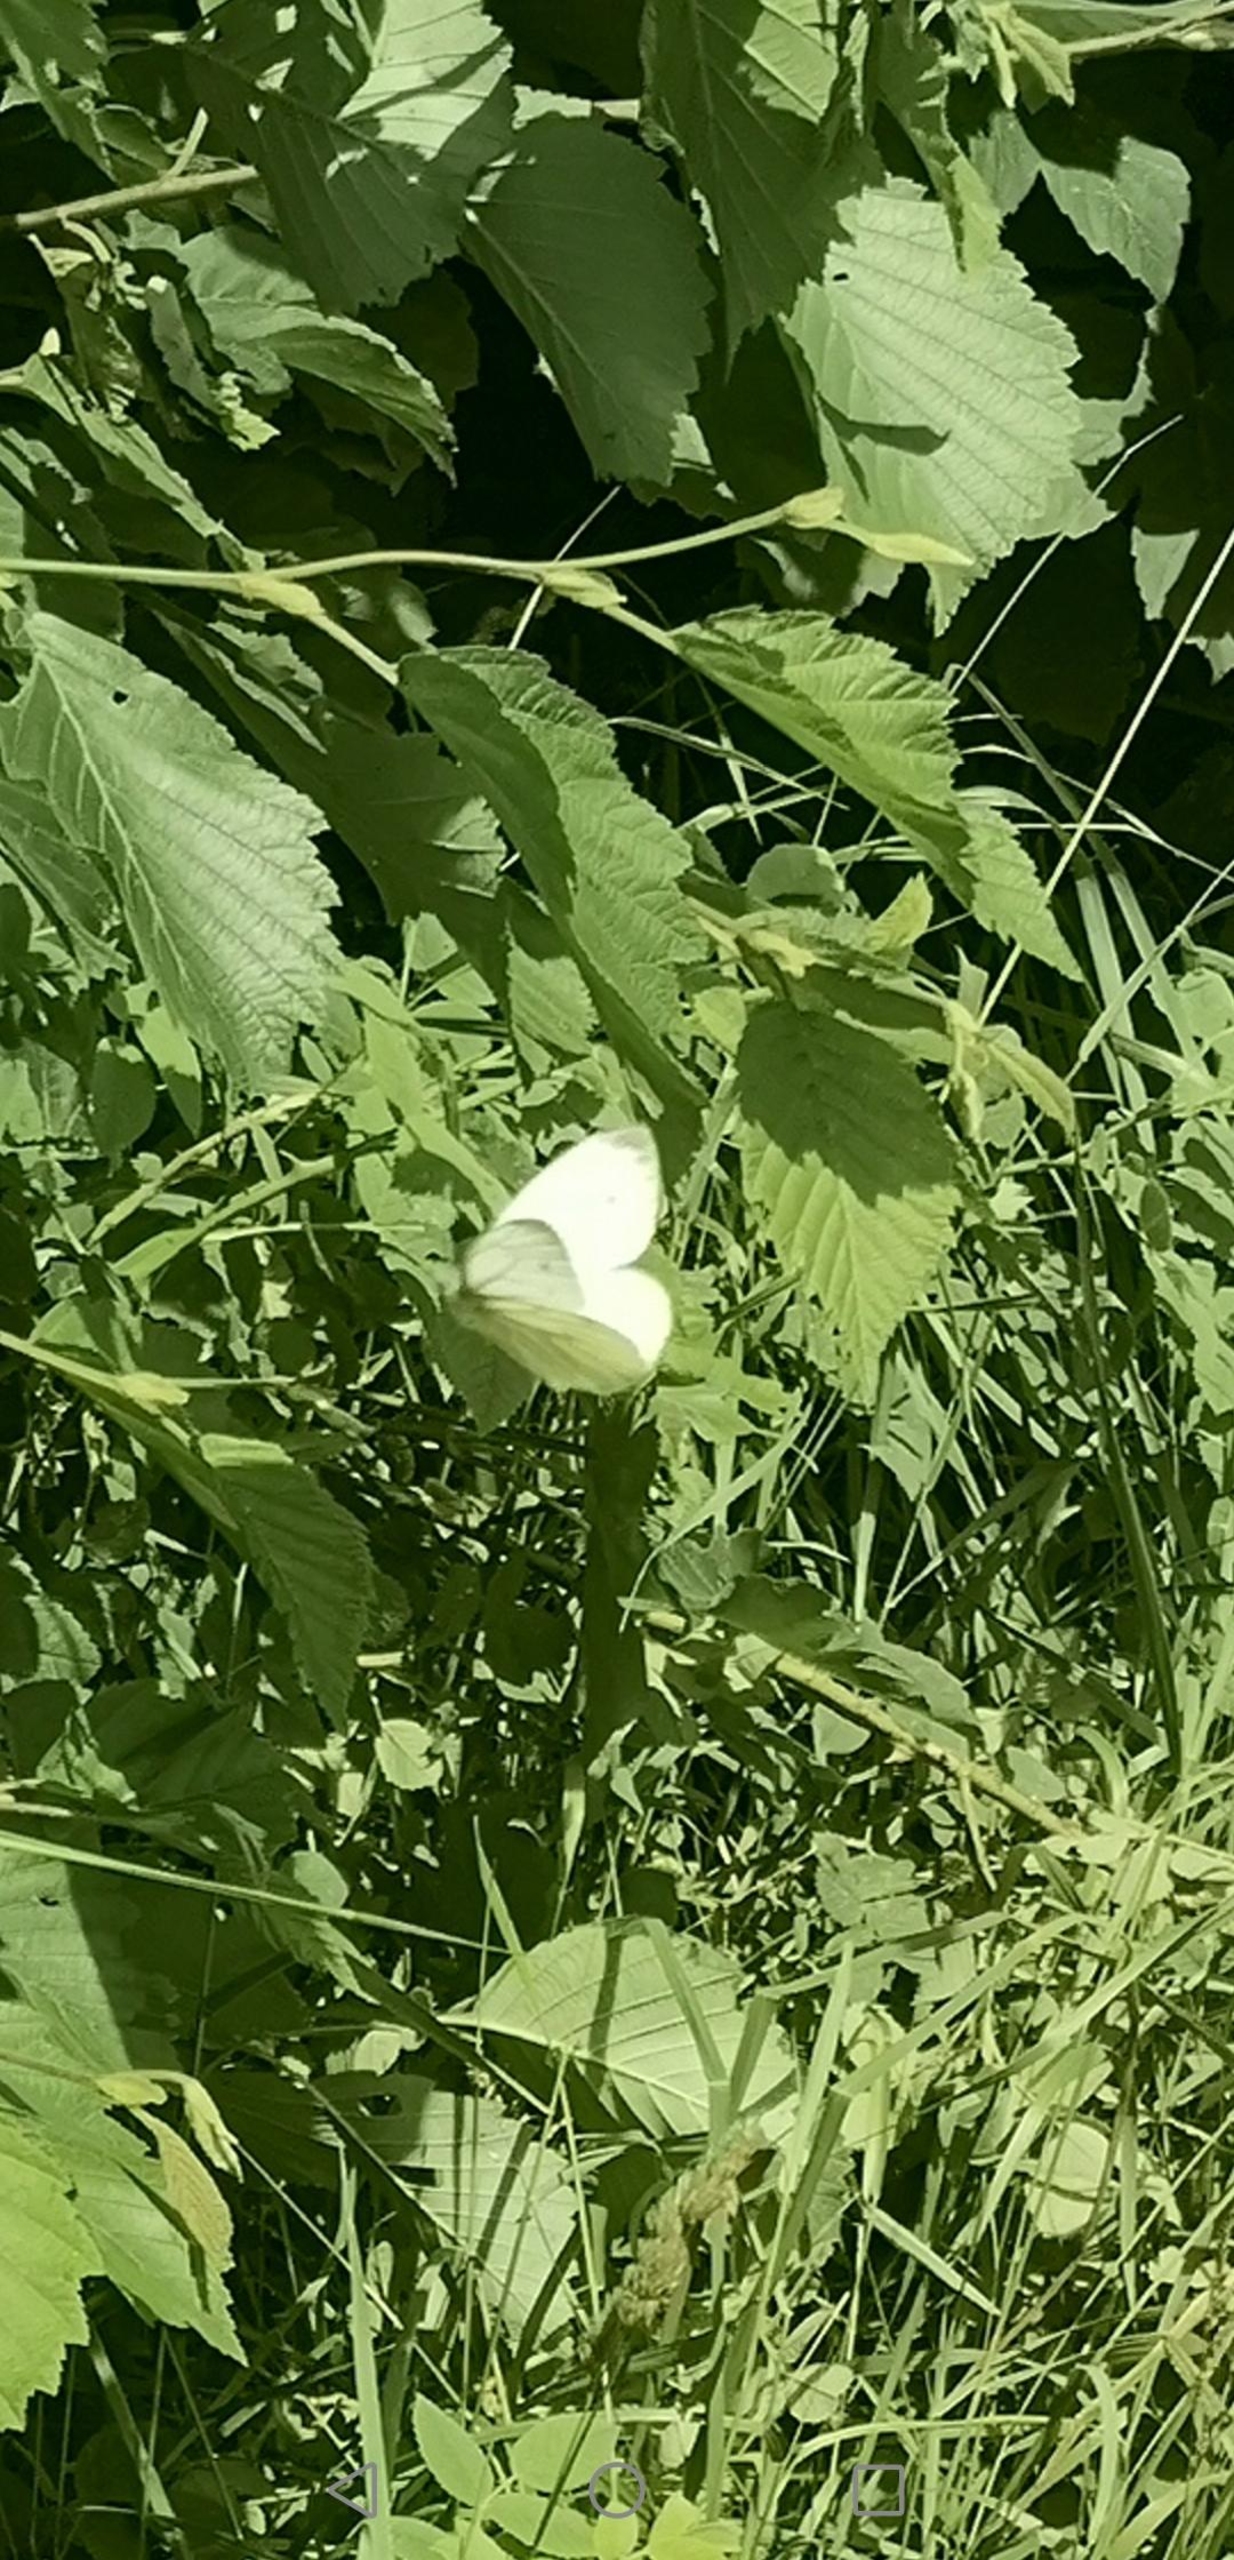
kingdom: Animalia
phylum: Arthropoda
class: Insecta
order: Lepidoptera
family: Pieridae
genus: Pieris
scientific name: Pieris napi
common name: Grønåret kålsommerfugl
